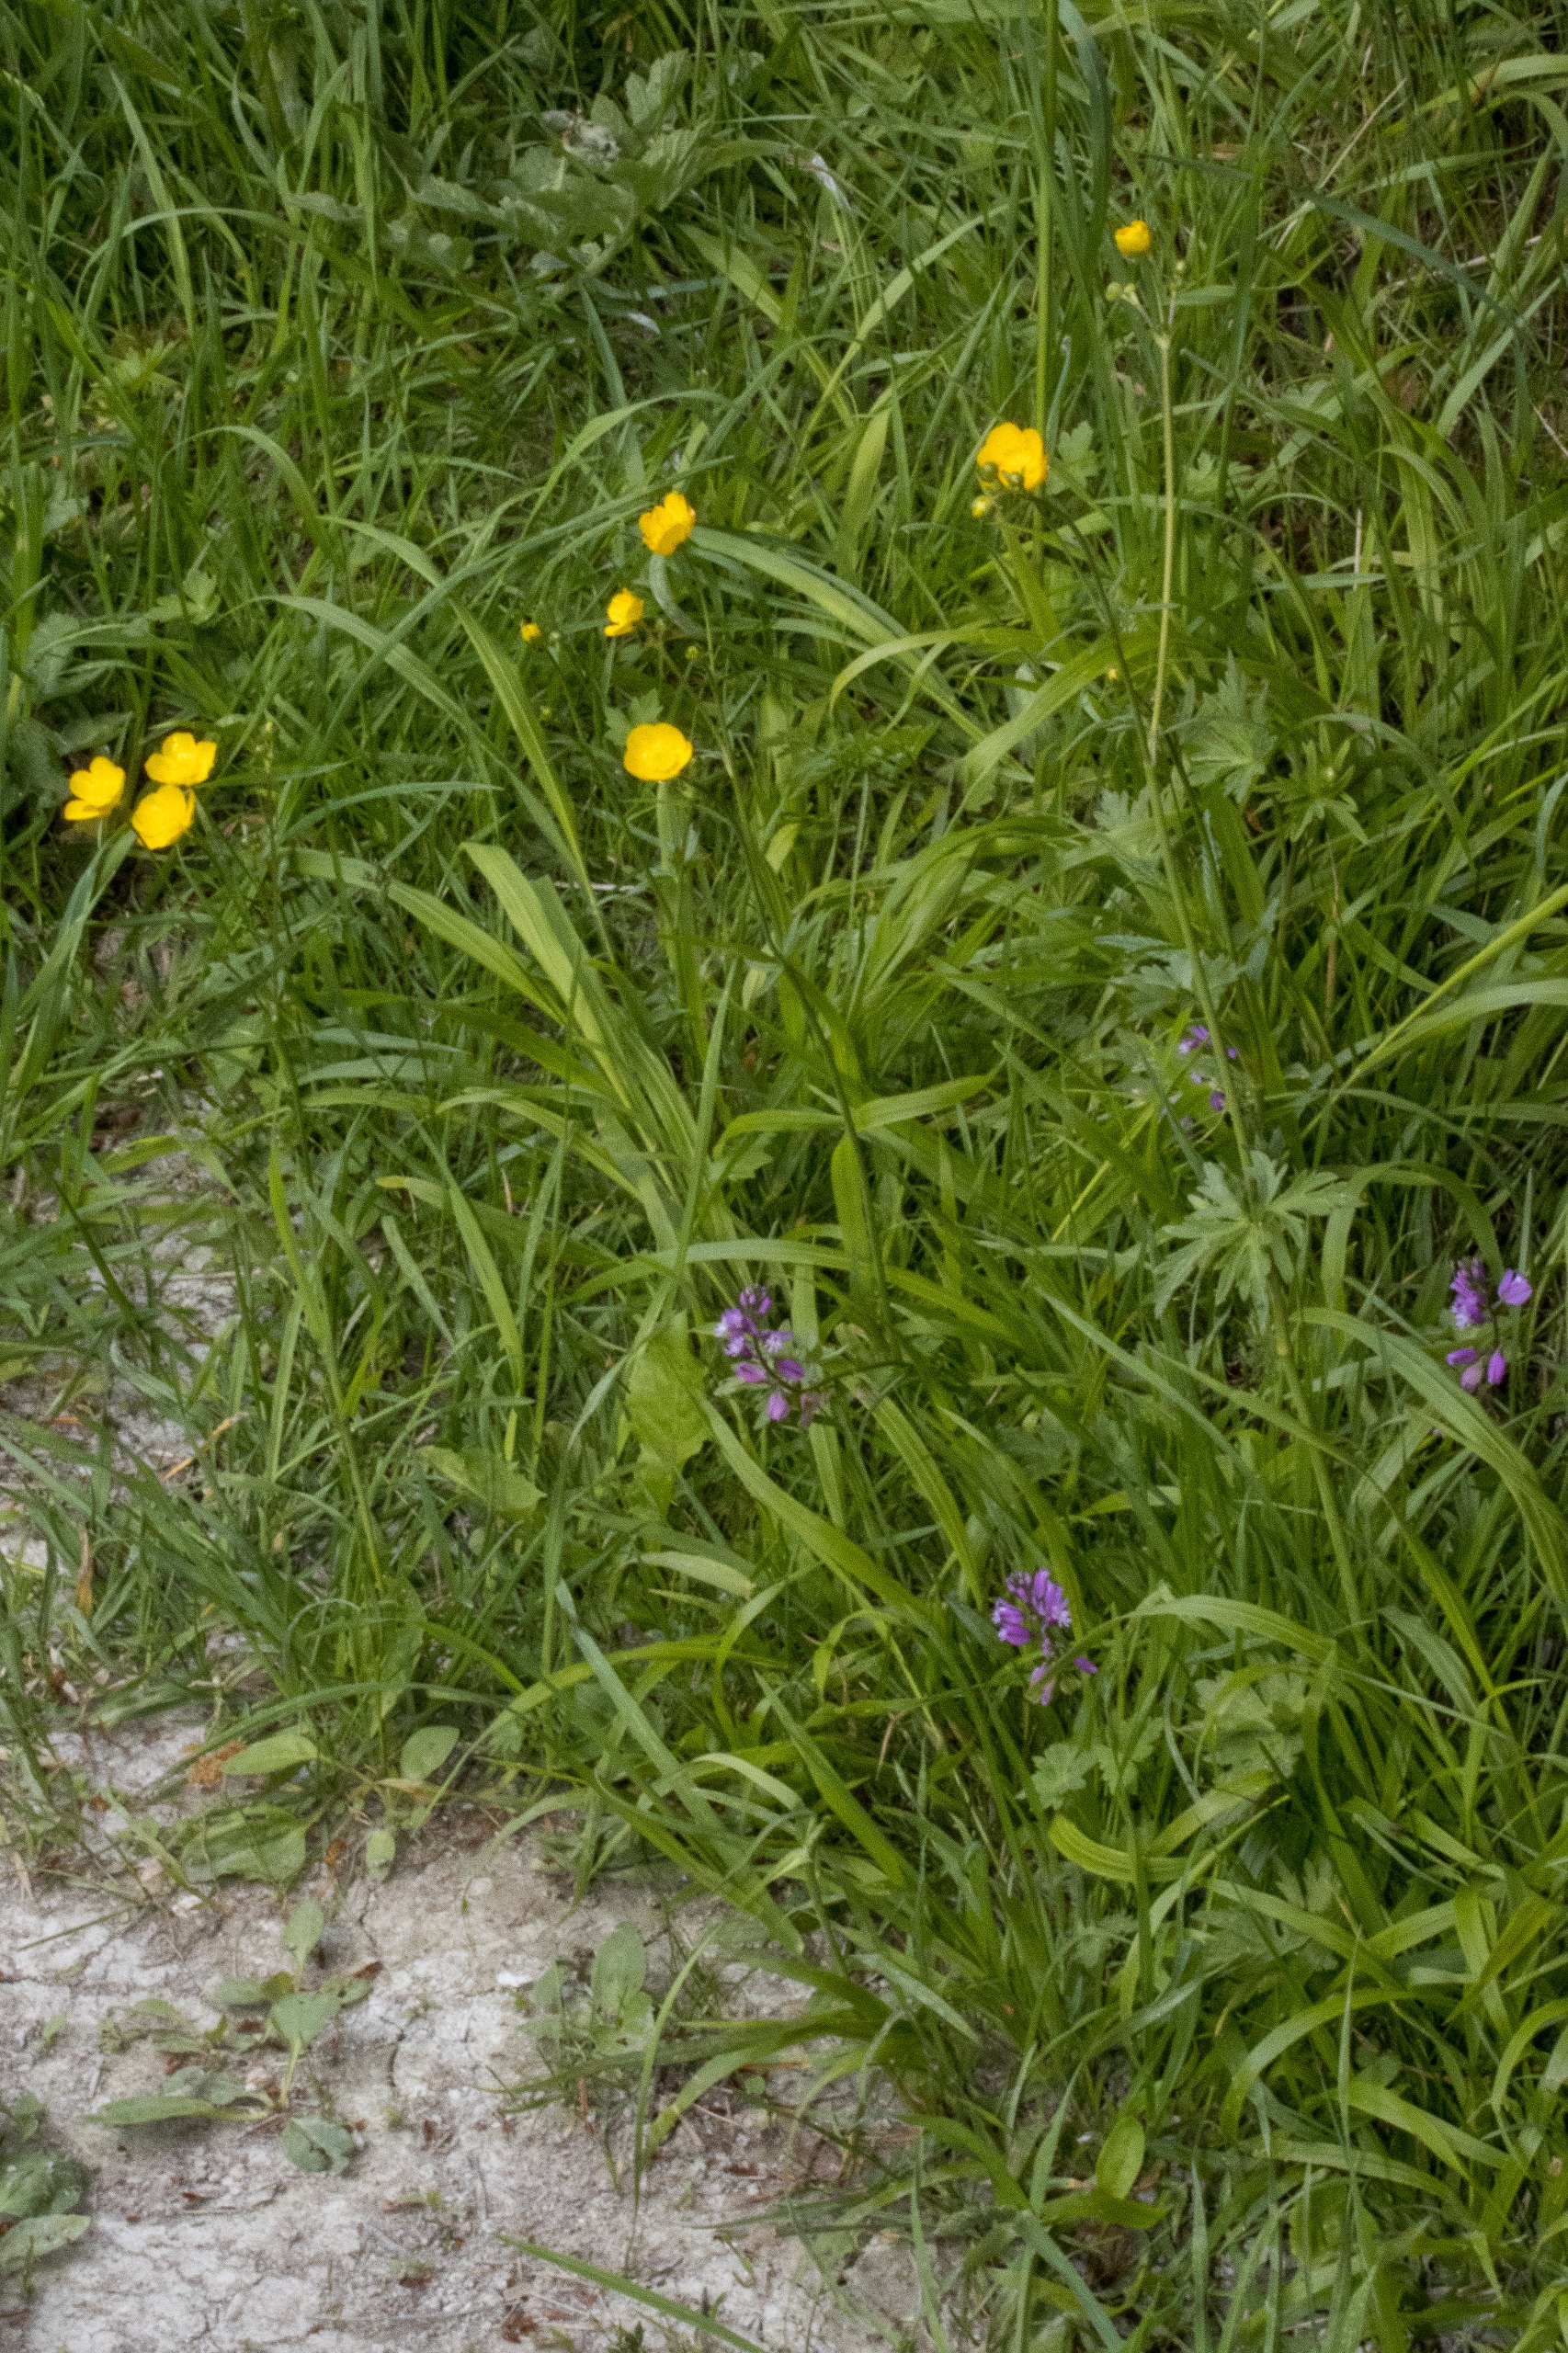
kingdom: Plantae
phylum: Tracheophyta
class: Magnoliopsida
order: Ranunculales
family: Ranunculaceae
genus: Ranunculus
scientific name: Ranunculus acris
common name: Bidende ranunkel
